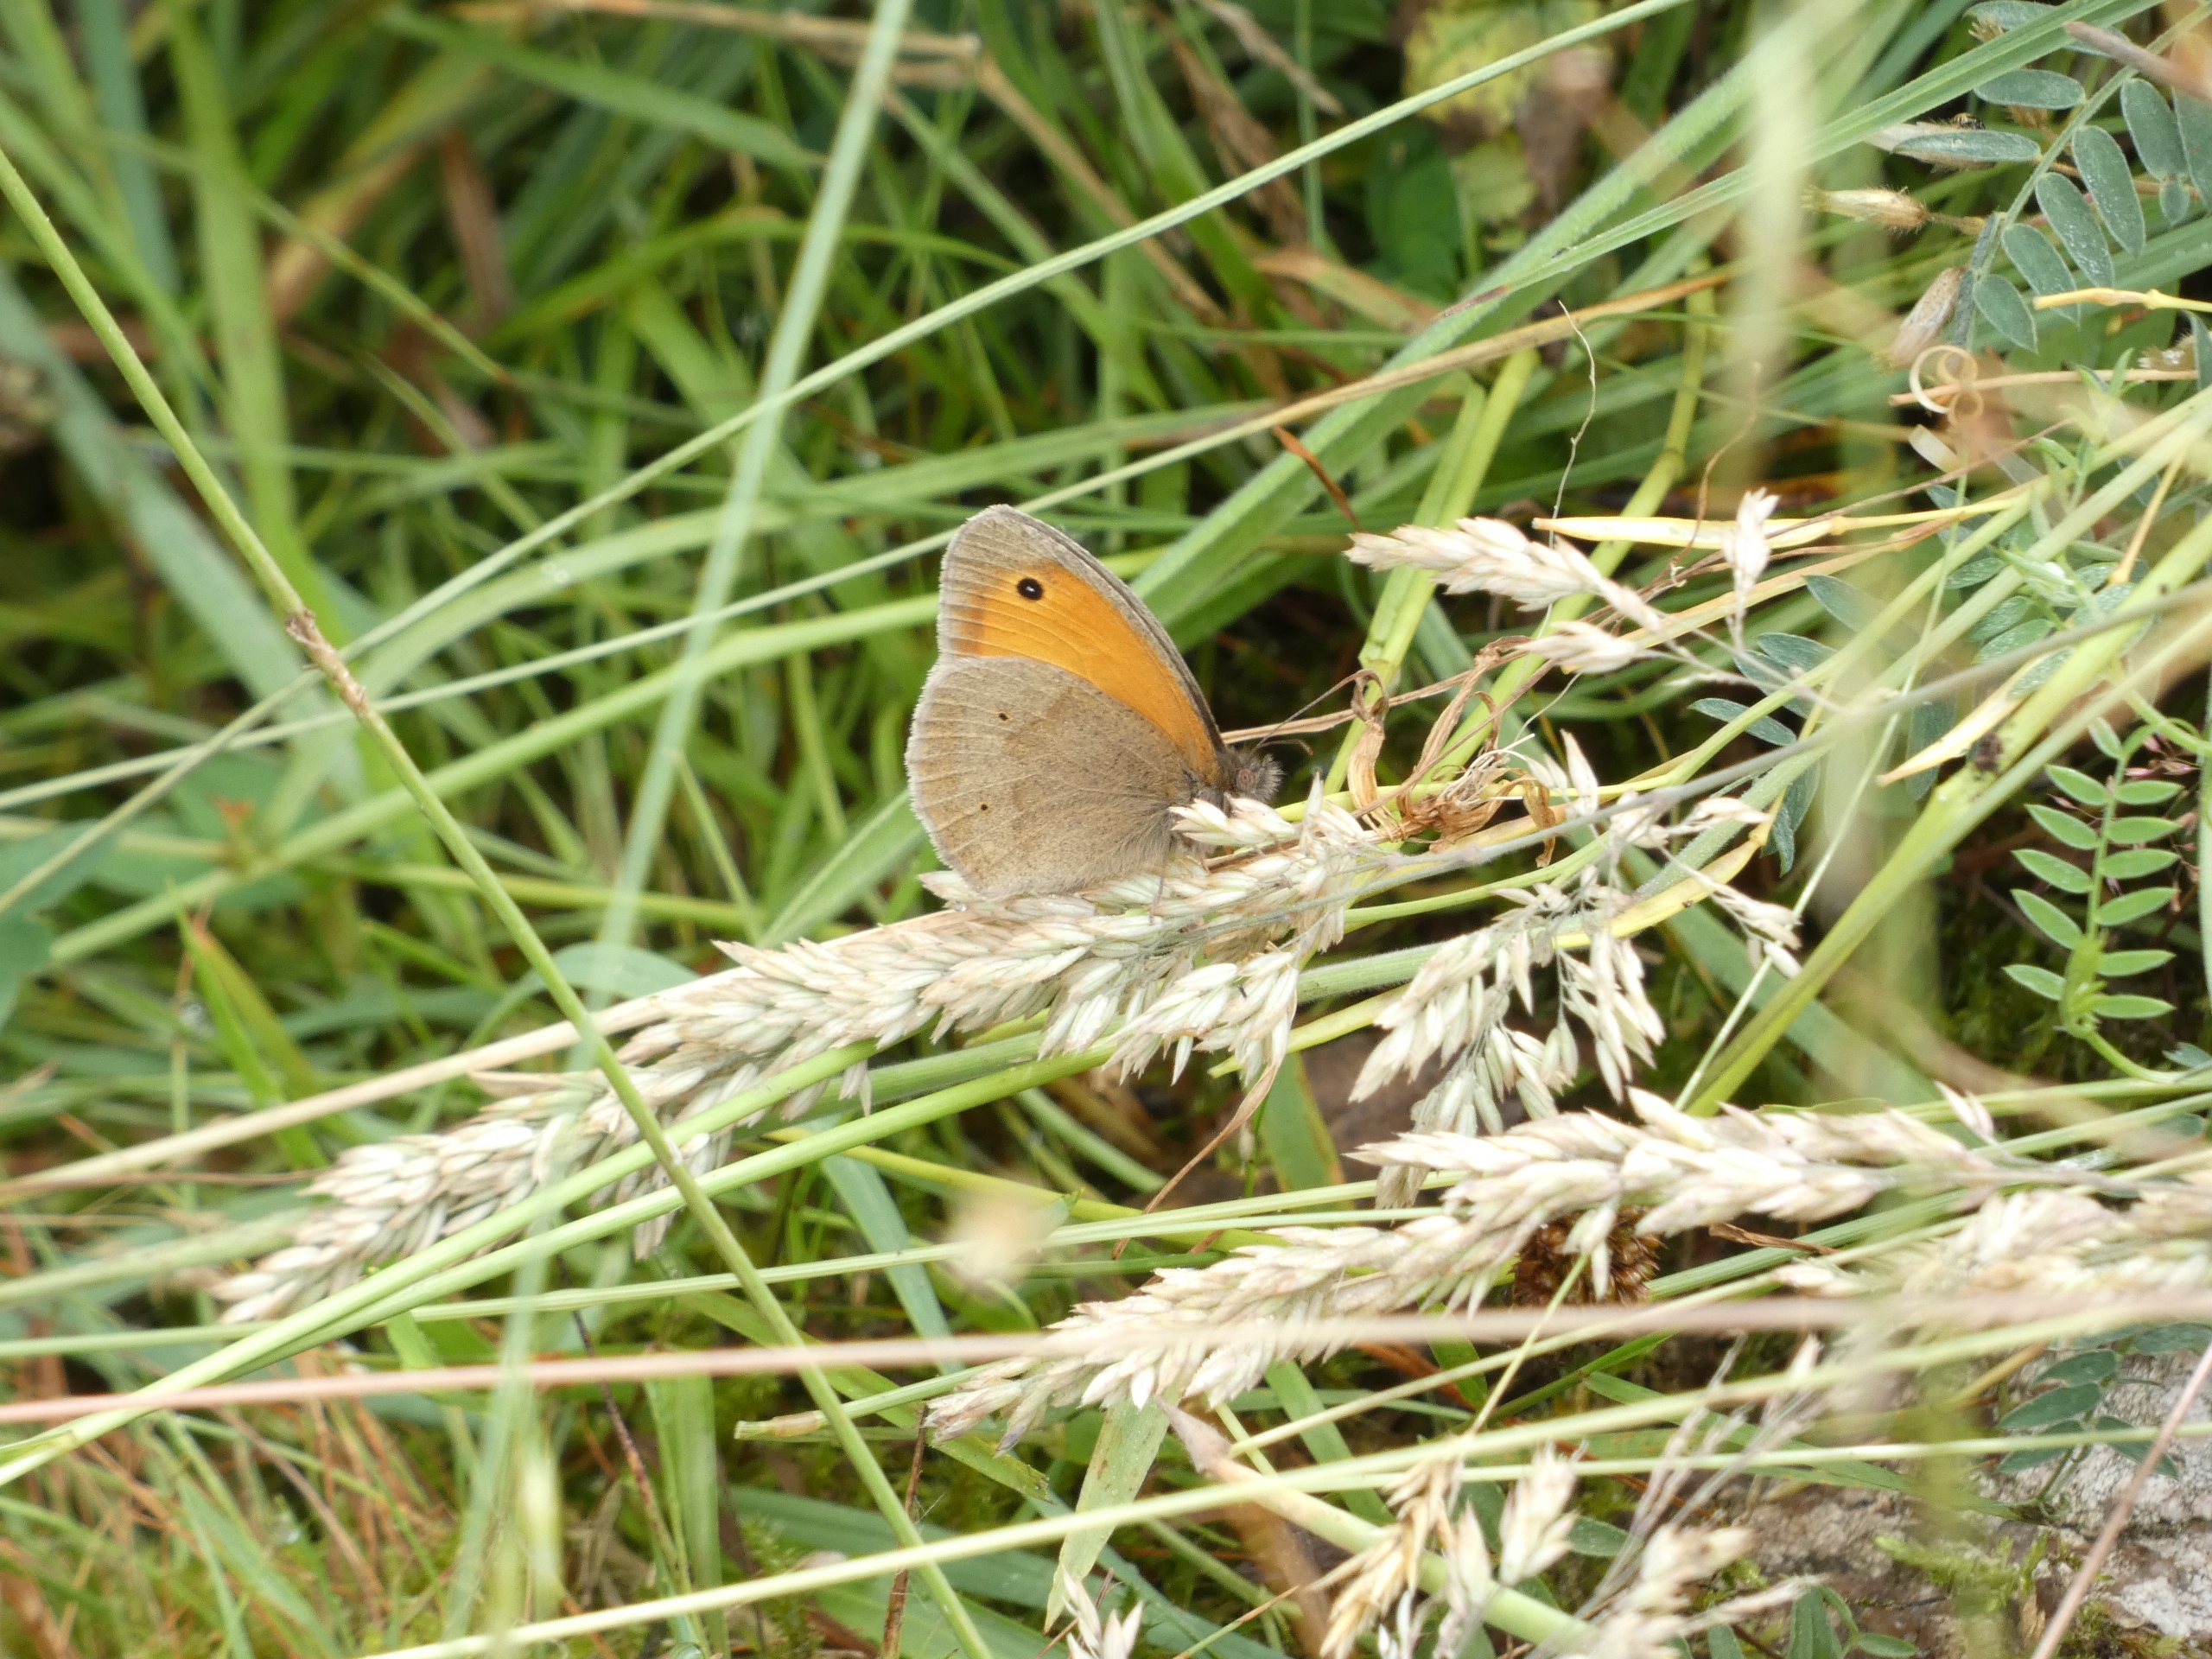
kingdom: Animalia
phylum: Arthropoda
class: Insecta
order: Lepidoptera
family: Nymphalidae
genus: Maniola
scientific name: Maniola jurtina
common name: Græsrandøje
